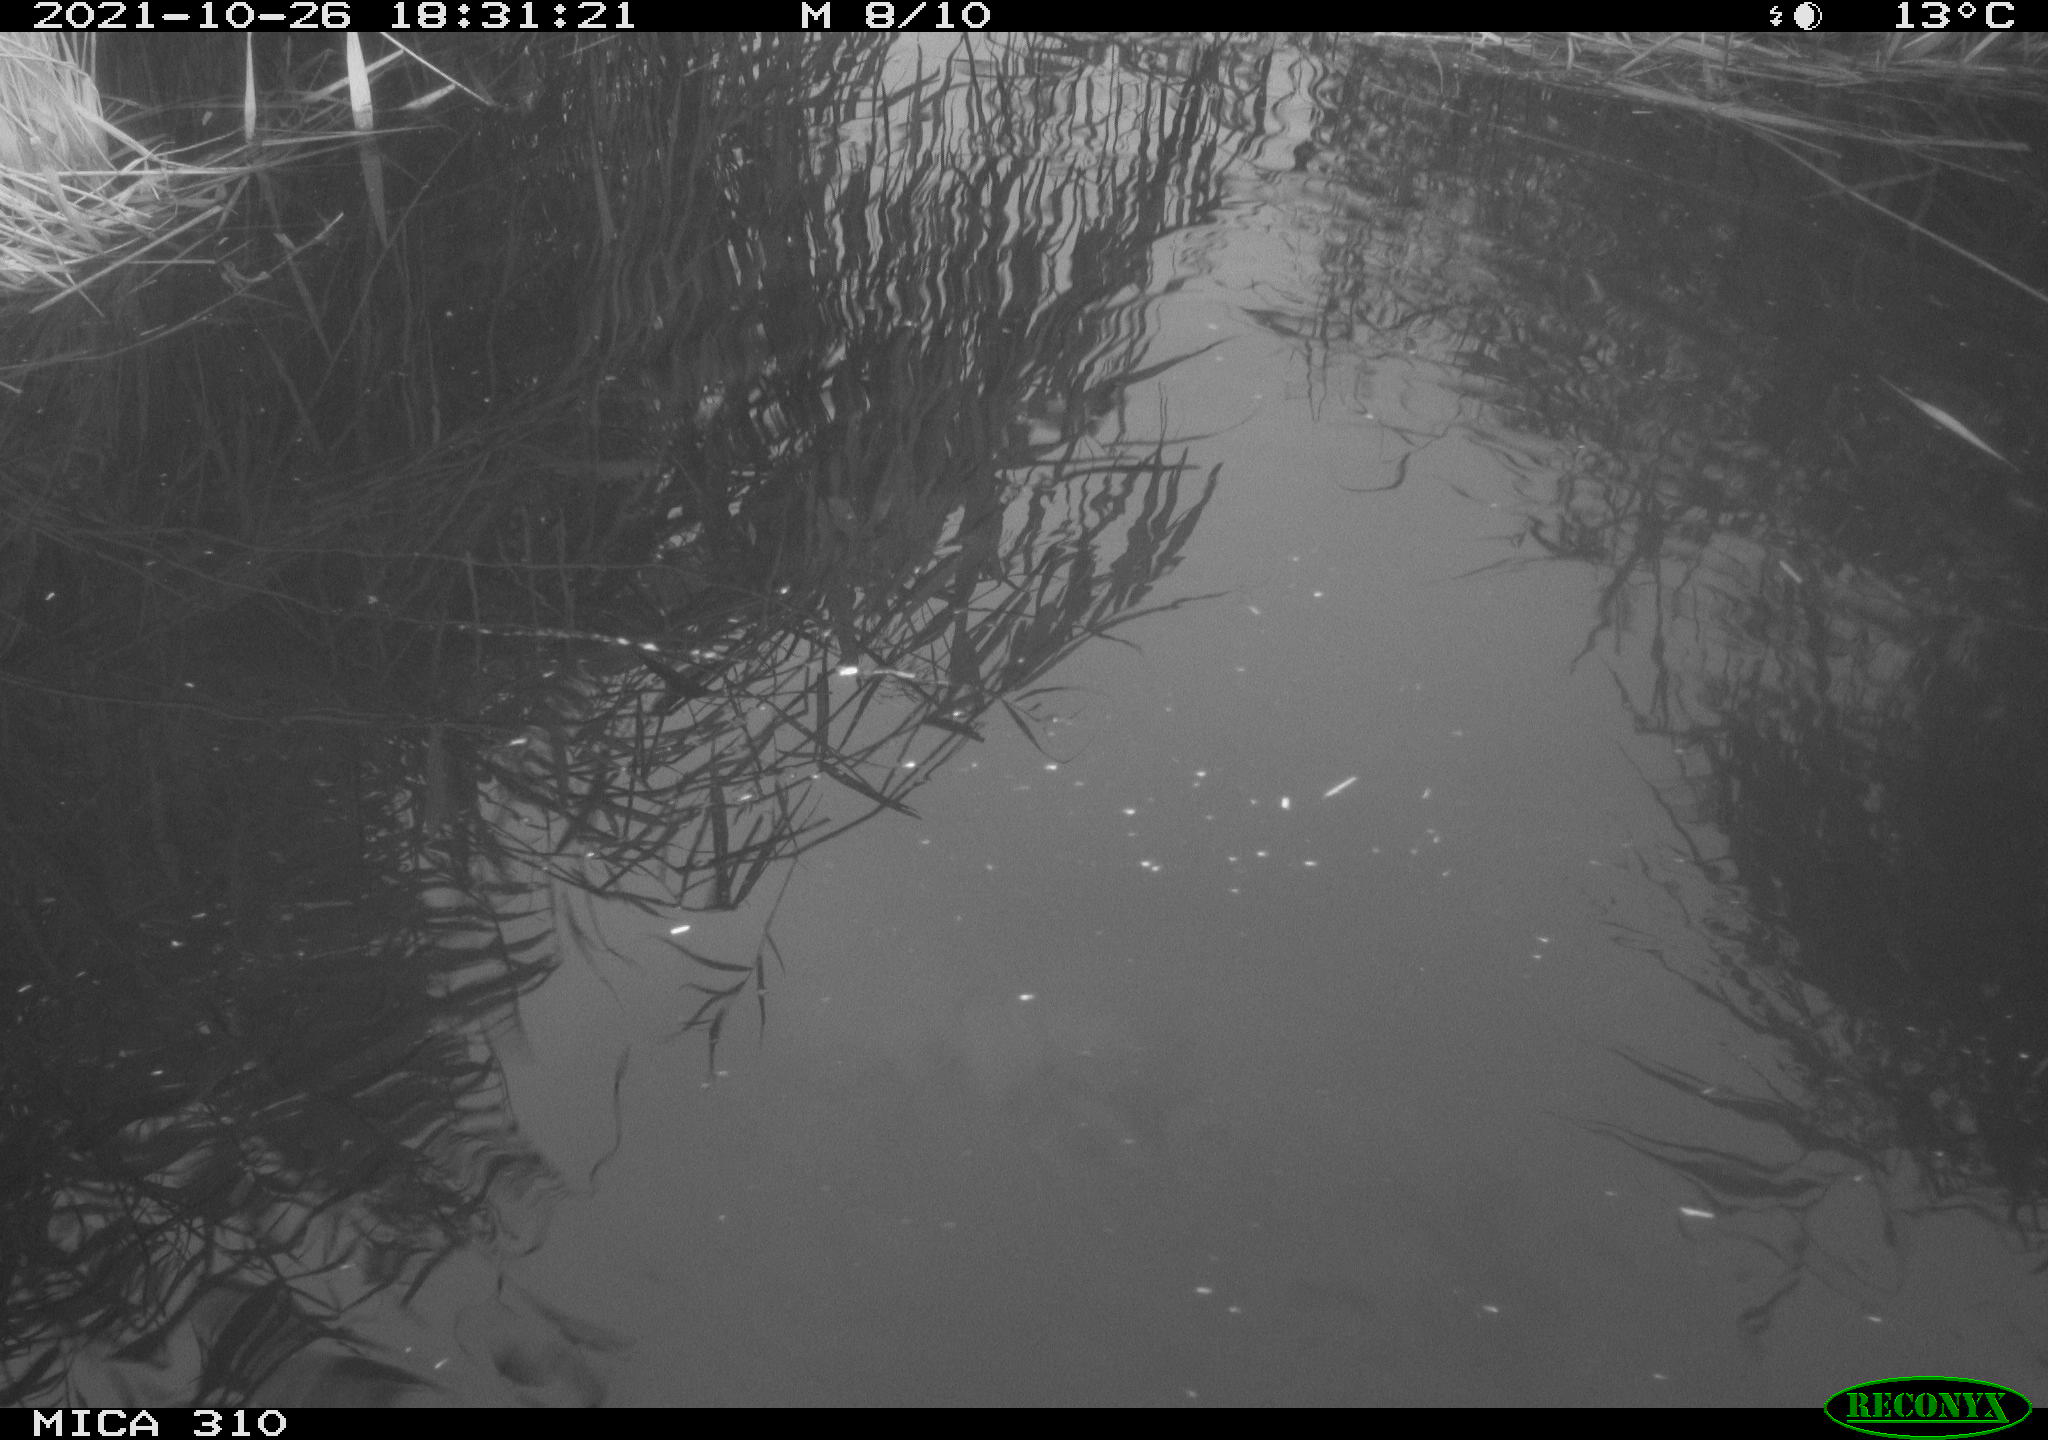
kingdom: Animalia
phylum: Chordata
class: Aves
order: Gruiformes
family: Rallidae
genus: Gallinula
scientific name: Gallinula chloropus
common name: Common moorhen
